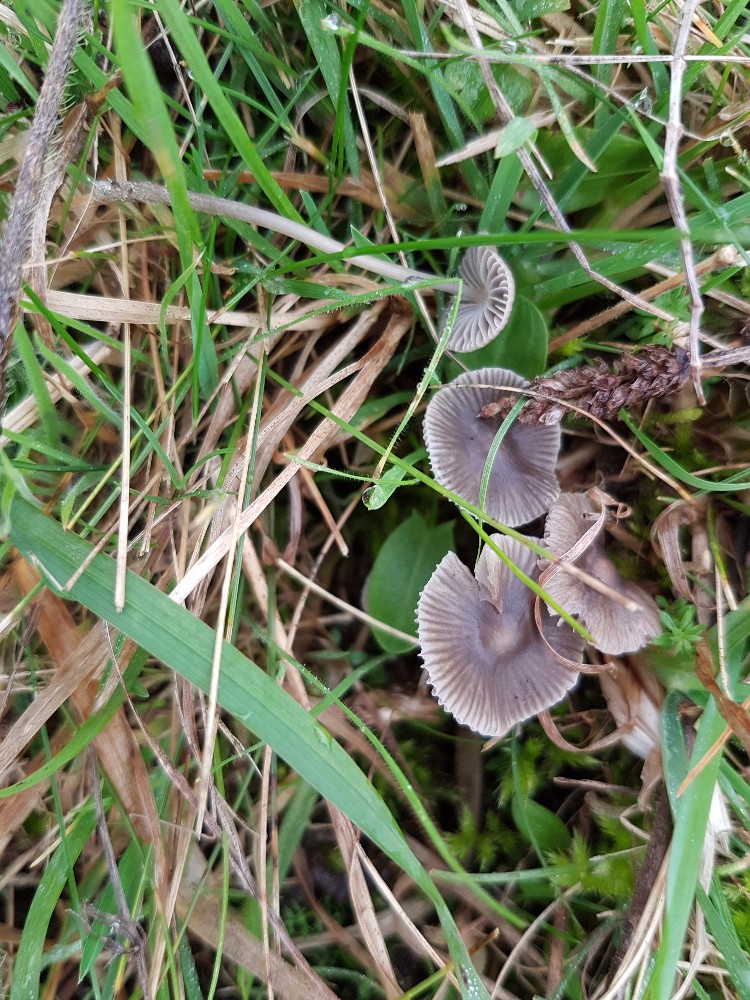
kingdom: Fungi
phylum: Basidiomycota
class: Agaricomycetes
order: Agaricales
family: Mycenaceae
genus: Mycena
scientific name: Mycena aetites
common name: plæne-huesvamp
